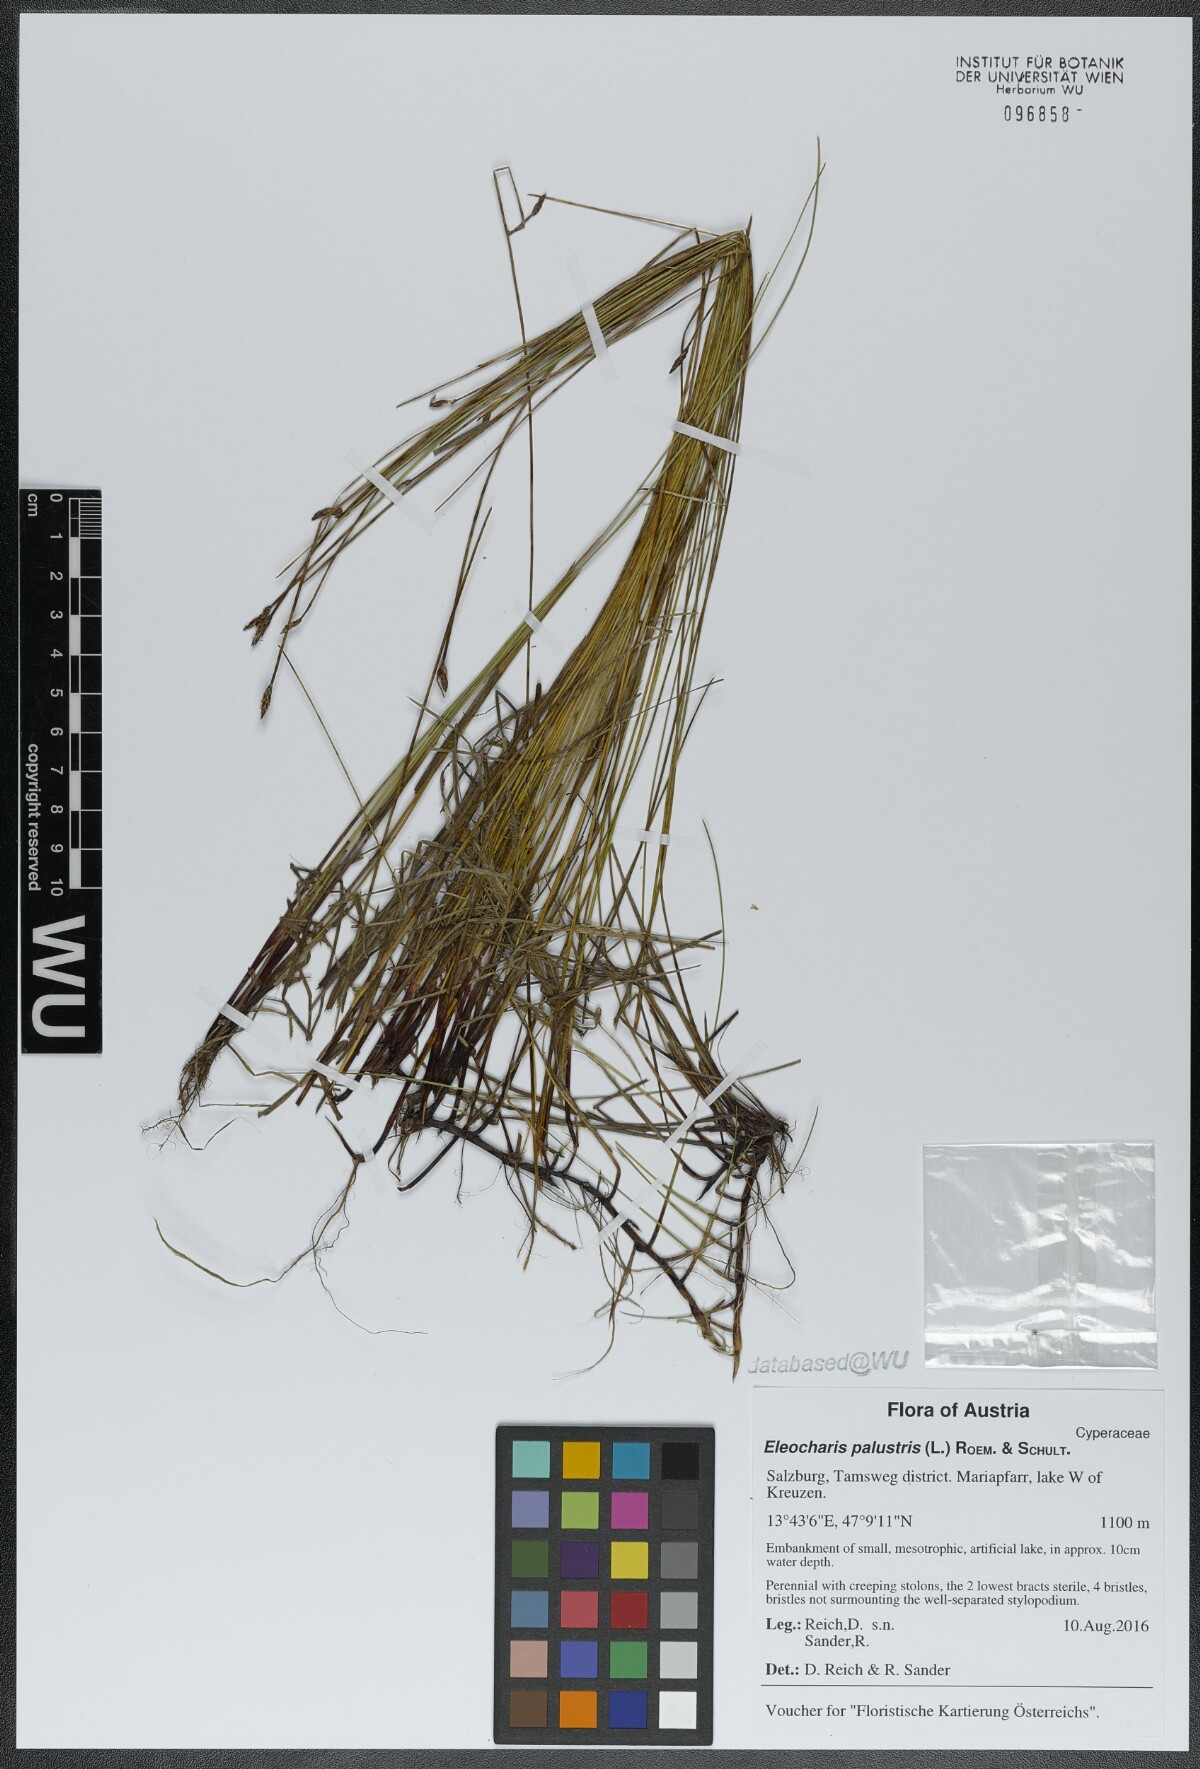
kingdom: Plantae
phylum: Tracheophyta
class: Liliopsida
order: Poales
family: Cyperaceae
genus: Eleocharis
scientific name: Eleocharis palustris
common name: Common spike-rush
